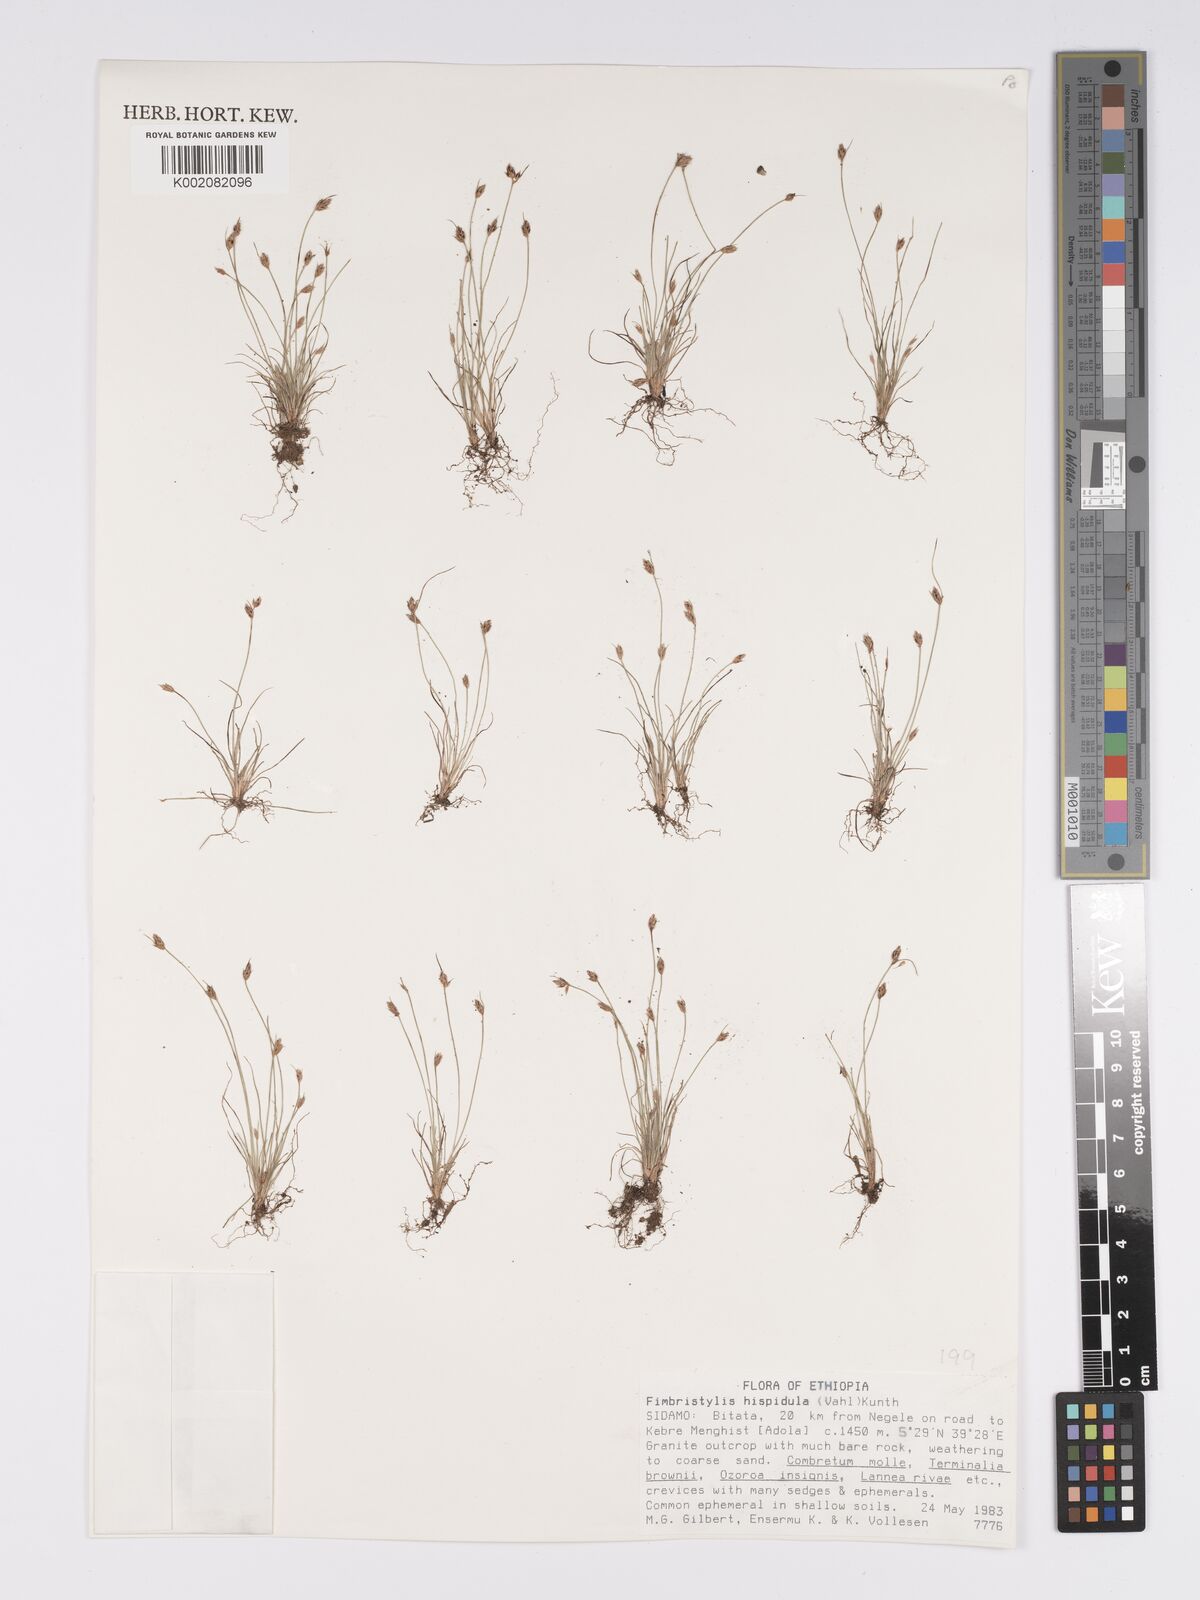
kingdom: Plantae
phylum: Tracheophyta
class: Liliopsida
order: Poales
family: Cyperaceae
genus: Bulbostylis
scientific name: Bulbostylis hispidula
